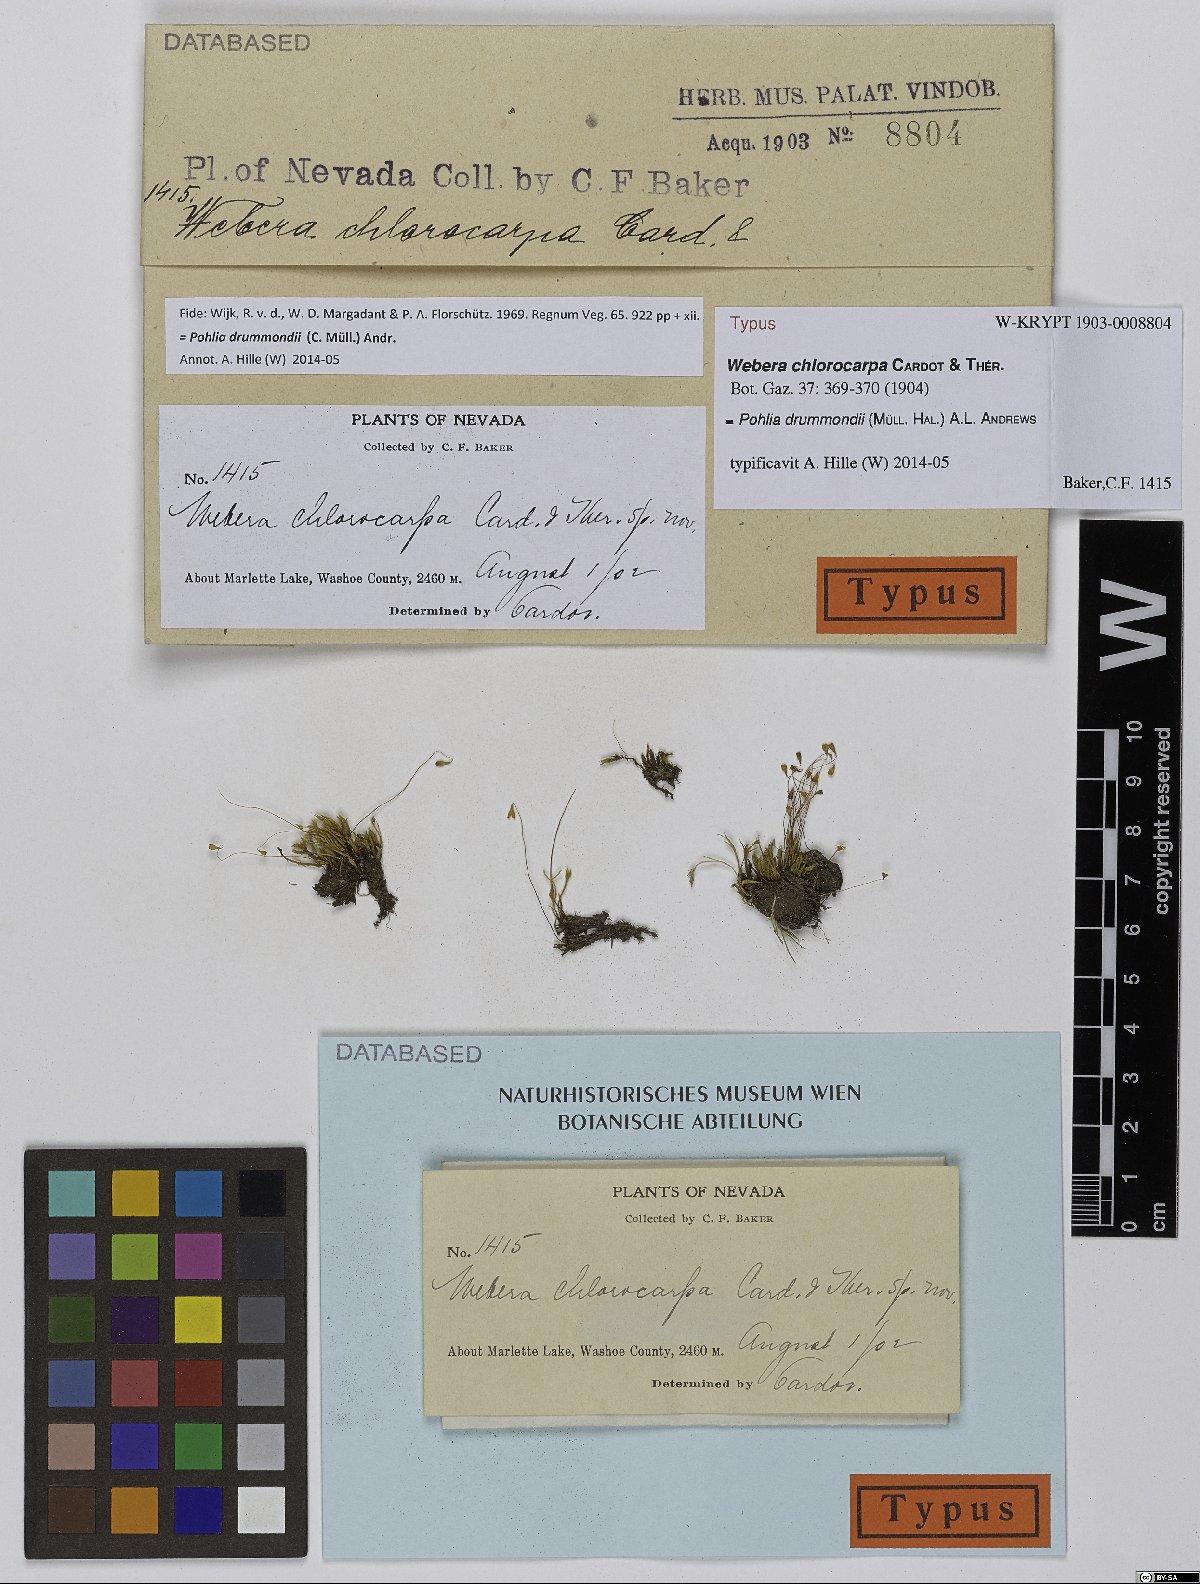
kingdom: Plantae
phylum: Bryophyta
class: Bryopsida
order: Bryales
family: Mniaceae
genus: Pohlia
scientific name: Pohlia drummondii
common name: Drummond's nodding moss
